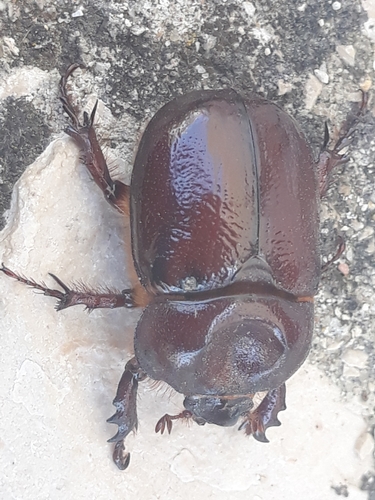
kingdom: Animalia
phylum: Arthropoda
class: Insecta
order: Coleoptera
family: Scarabaeidae
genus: Phyllognathus
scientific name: Phyllognathus excavatus
